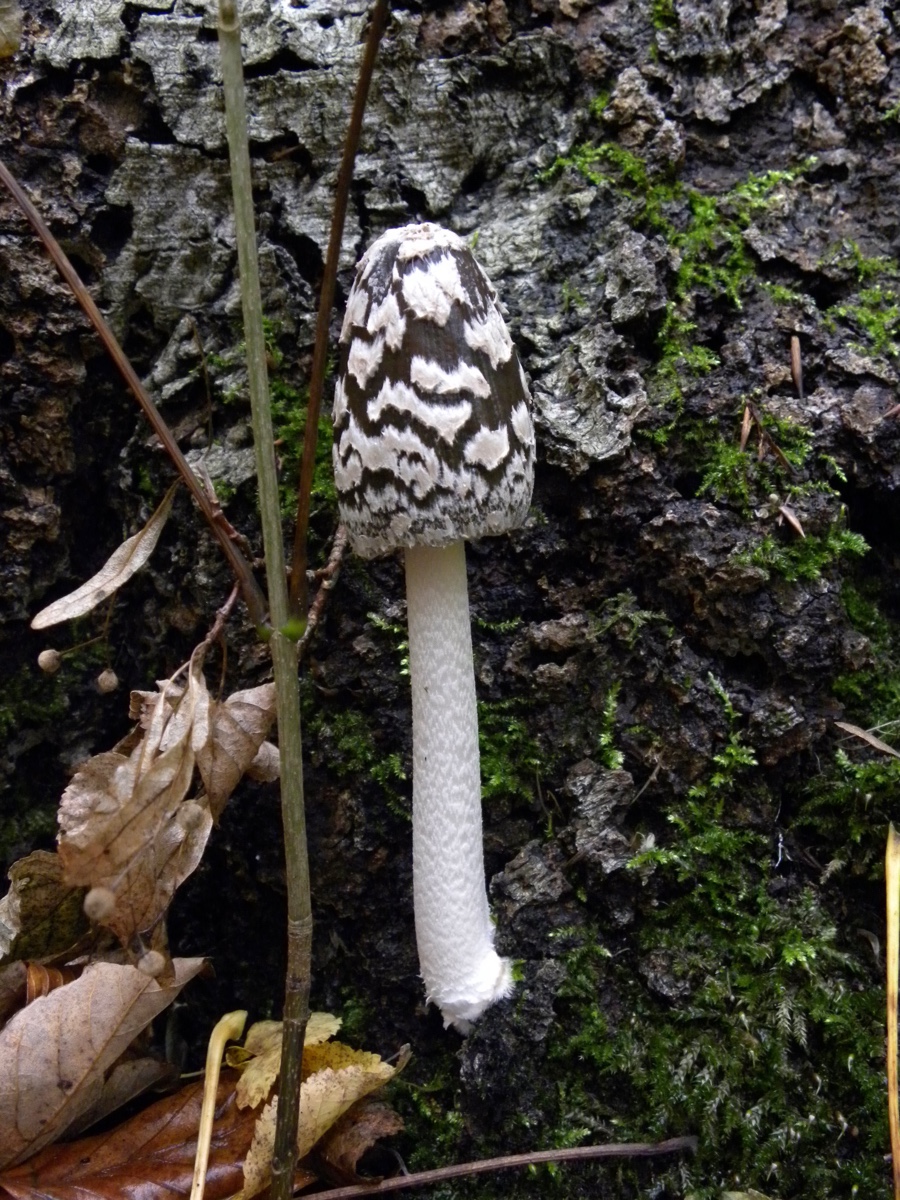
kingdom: Fungi
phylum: Basidiomycota
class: Agaricomycetes
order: Agaricales
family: Psathyrellaceae
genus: Coprinopsis
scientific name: Coprinopsis picacea
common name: skade-blækhat
